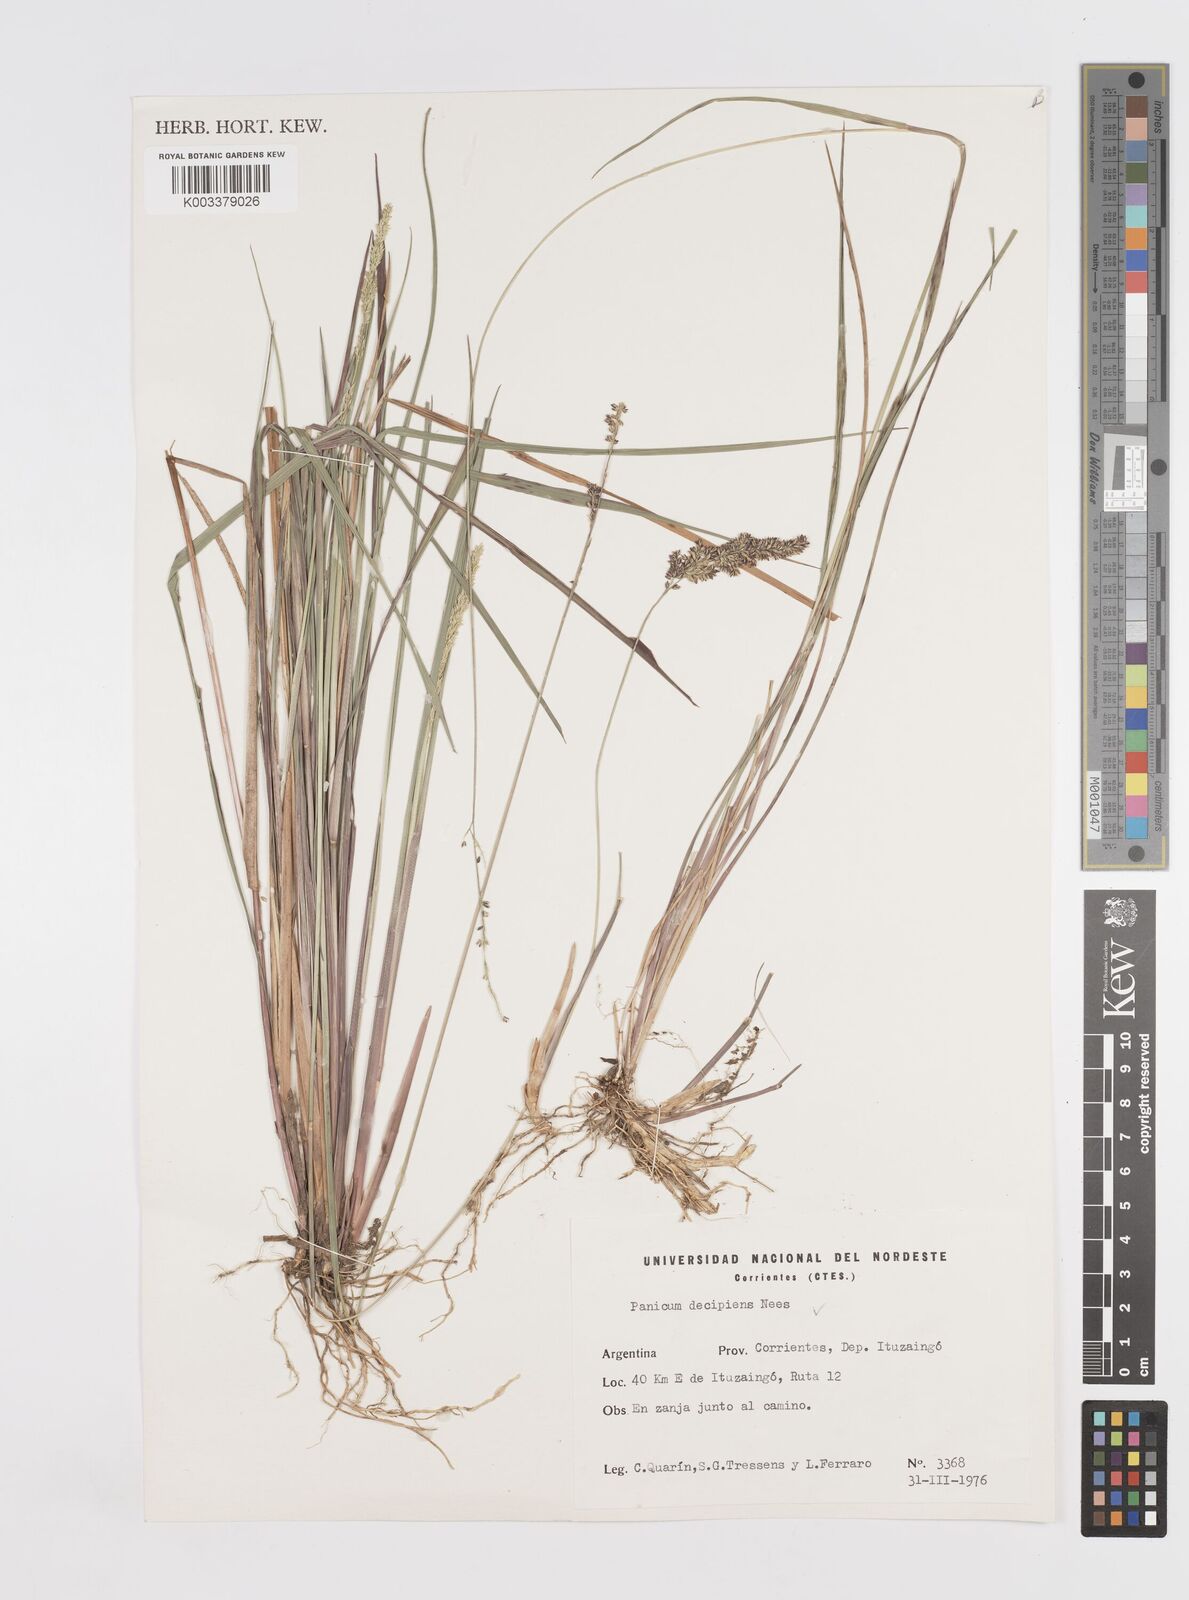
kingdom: Plantae
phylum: Tracheophyta
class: Liliopsida
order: Poales
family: Poaceae
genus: Steinchisma
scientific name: Steinchisma decipiens
